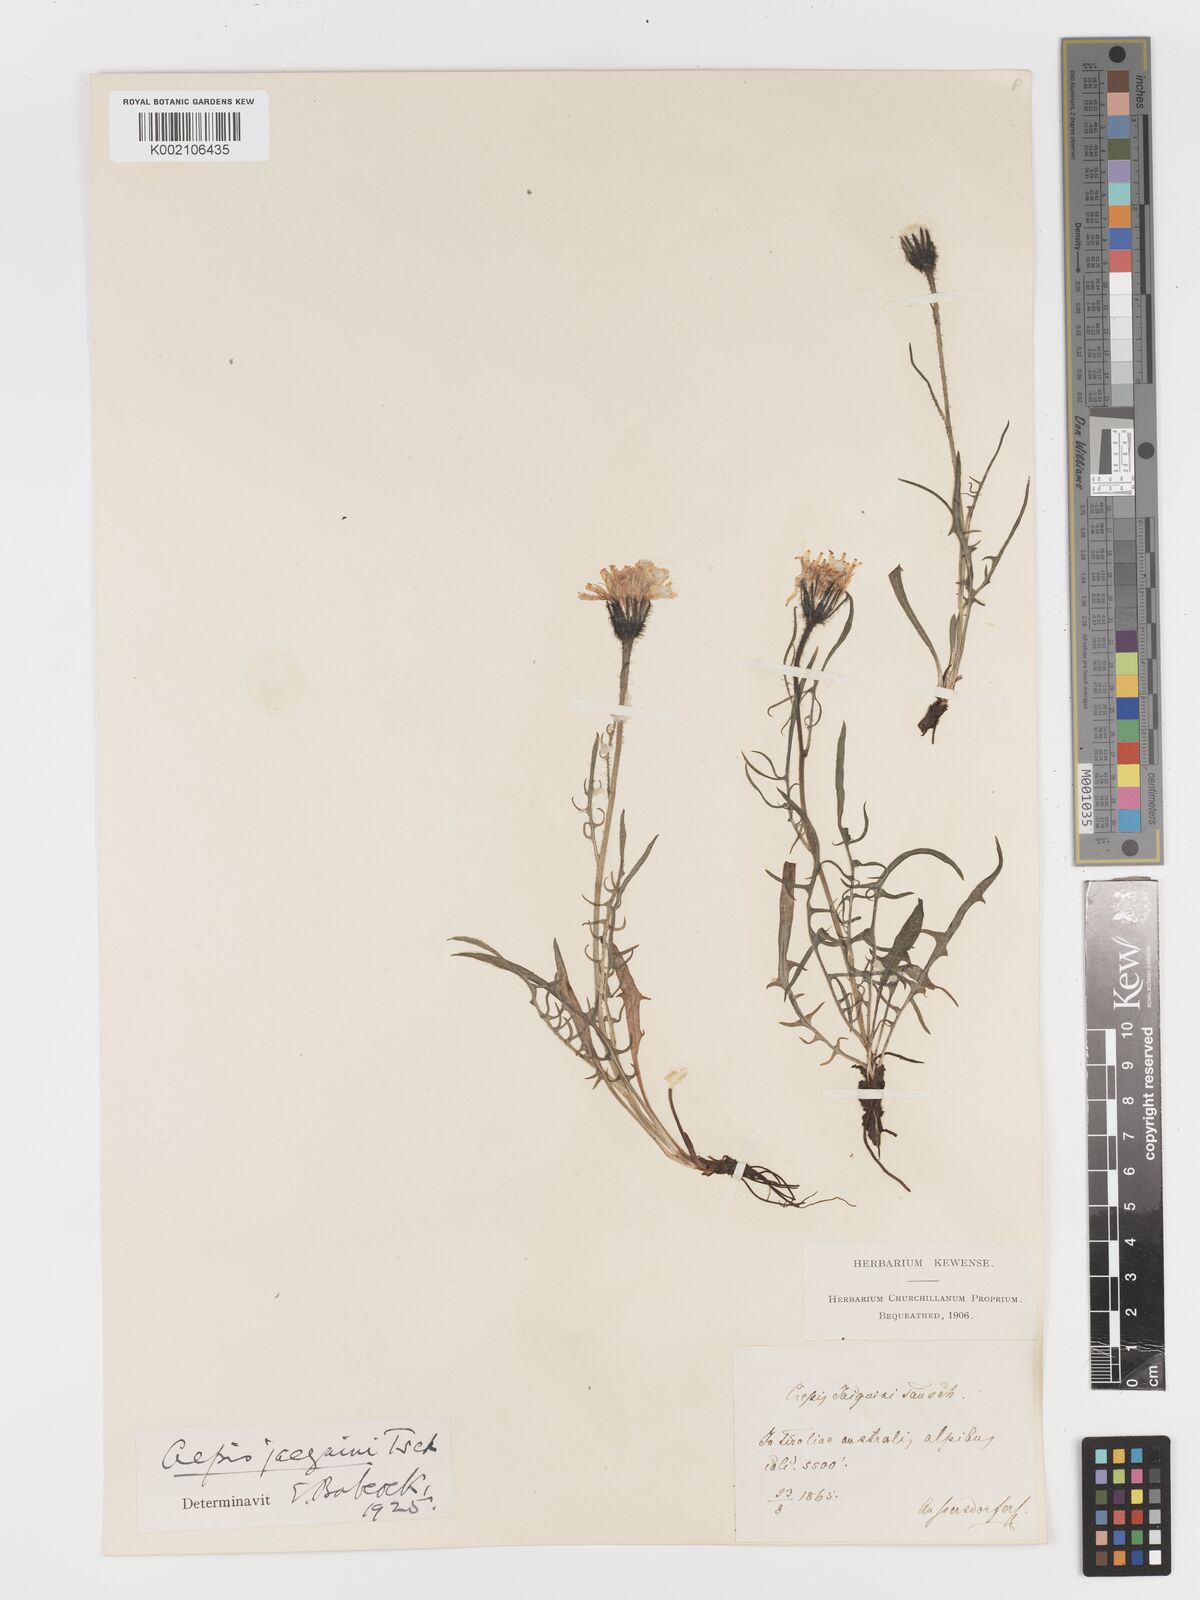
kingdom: Plantae
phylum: Tracheophyta
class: Magnoliopsida
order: Asterales
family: Asteraceae
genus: Crepis
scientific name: Crepis jacquinii
